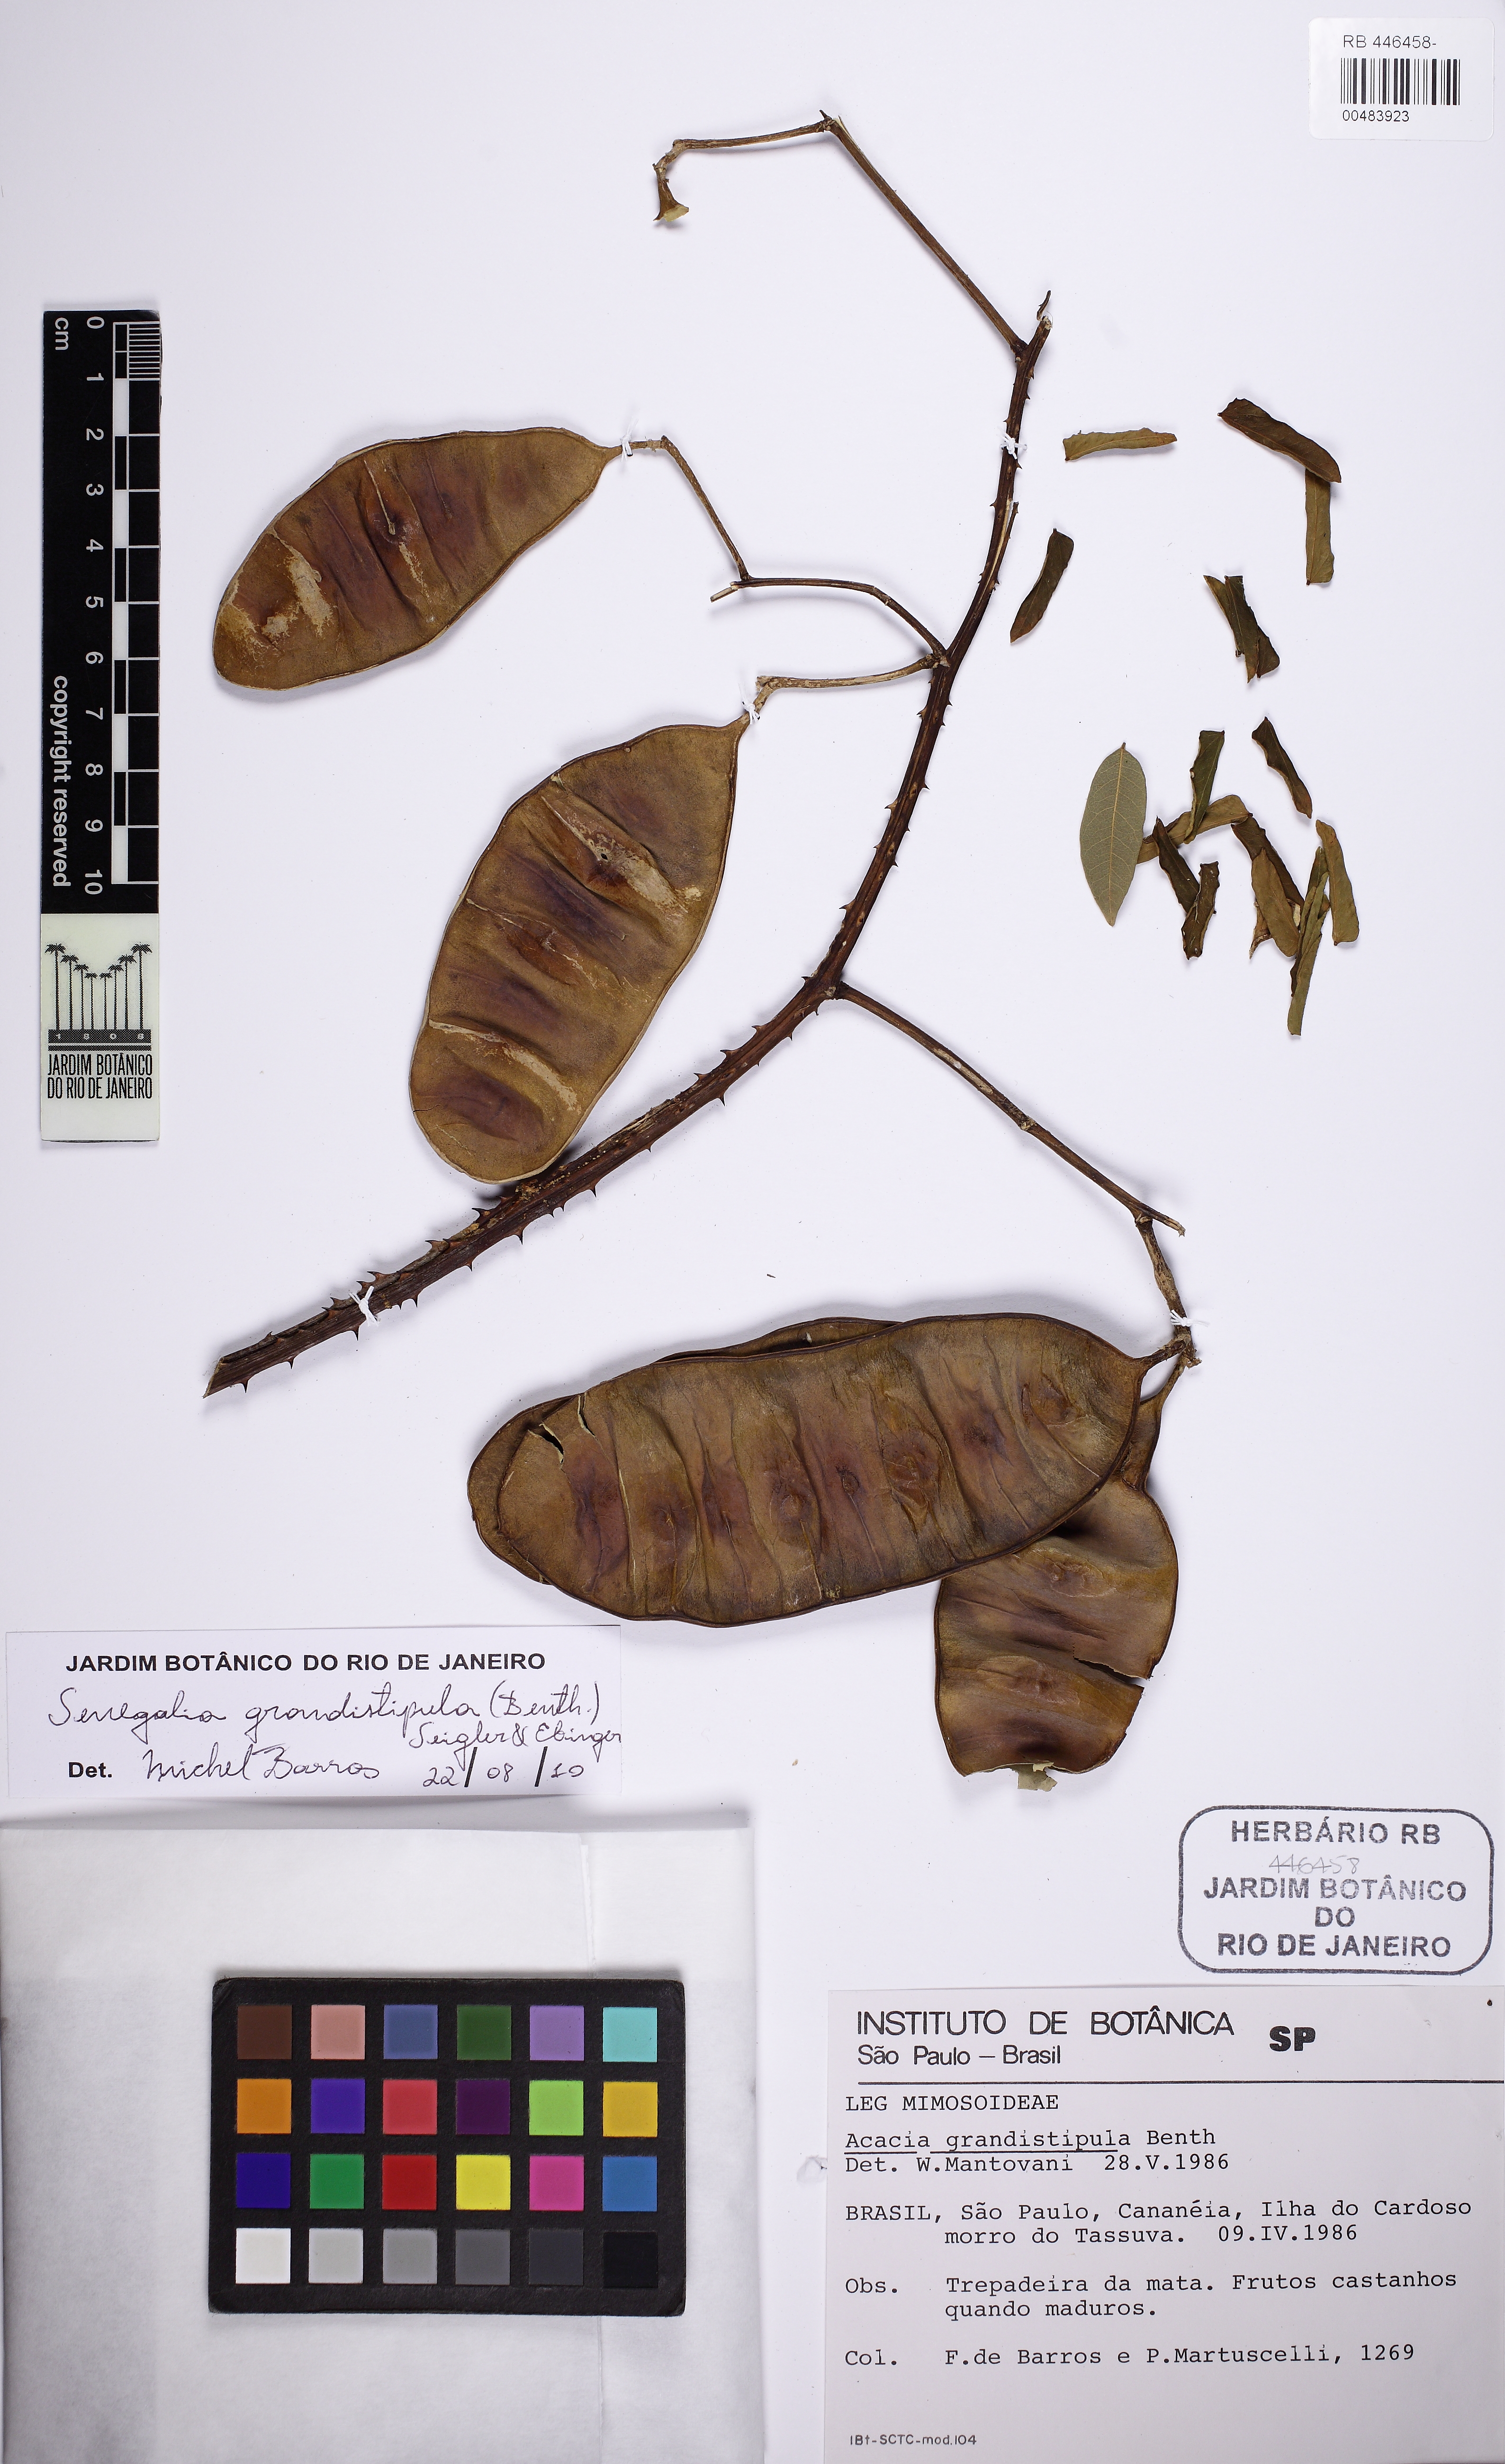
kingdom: Plantae
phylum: Tracheophyta
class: Magnoliopsida
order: Fabales
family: Fabaceae
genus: Senegalia
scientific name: Senegalia grandistipula
